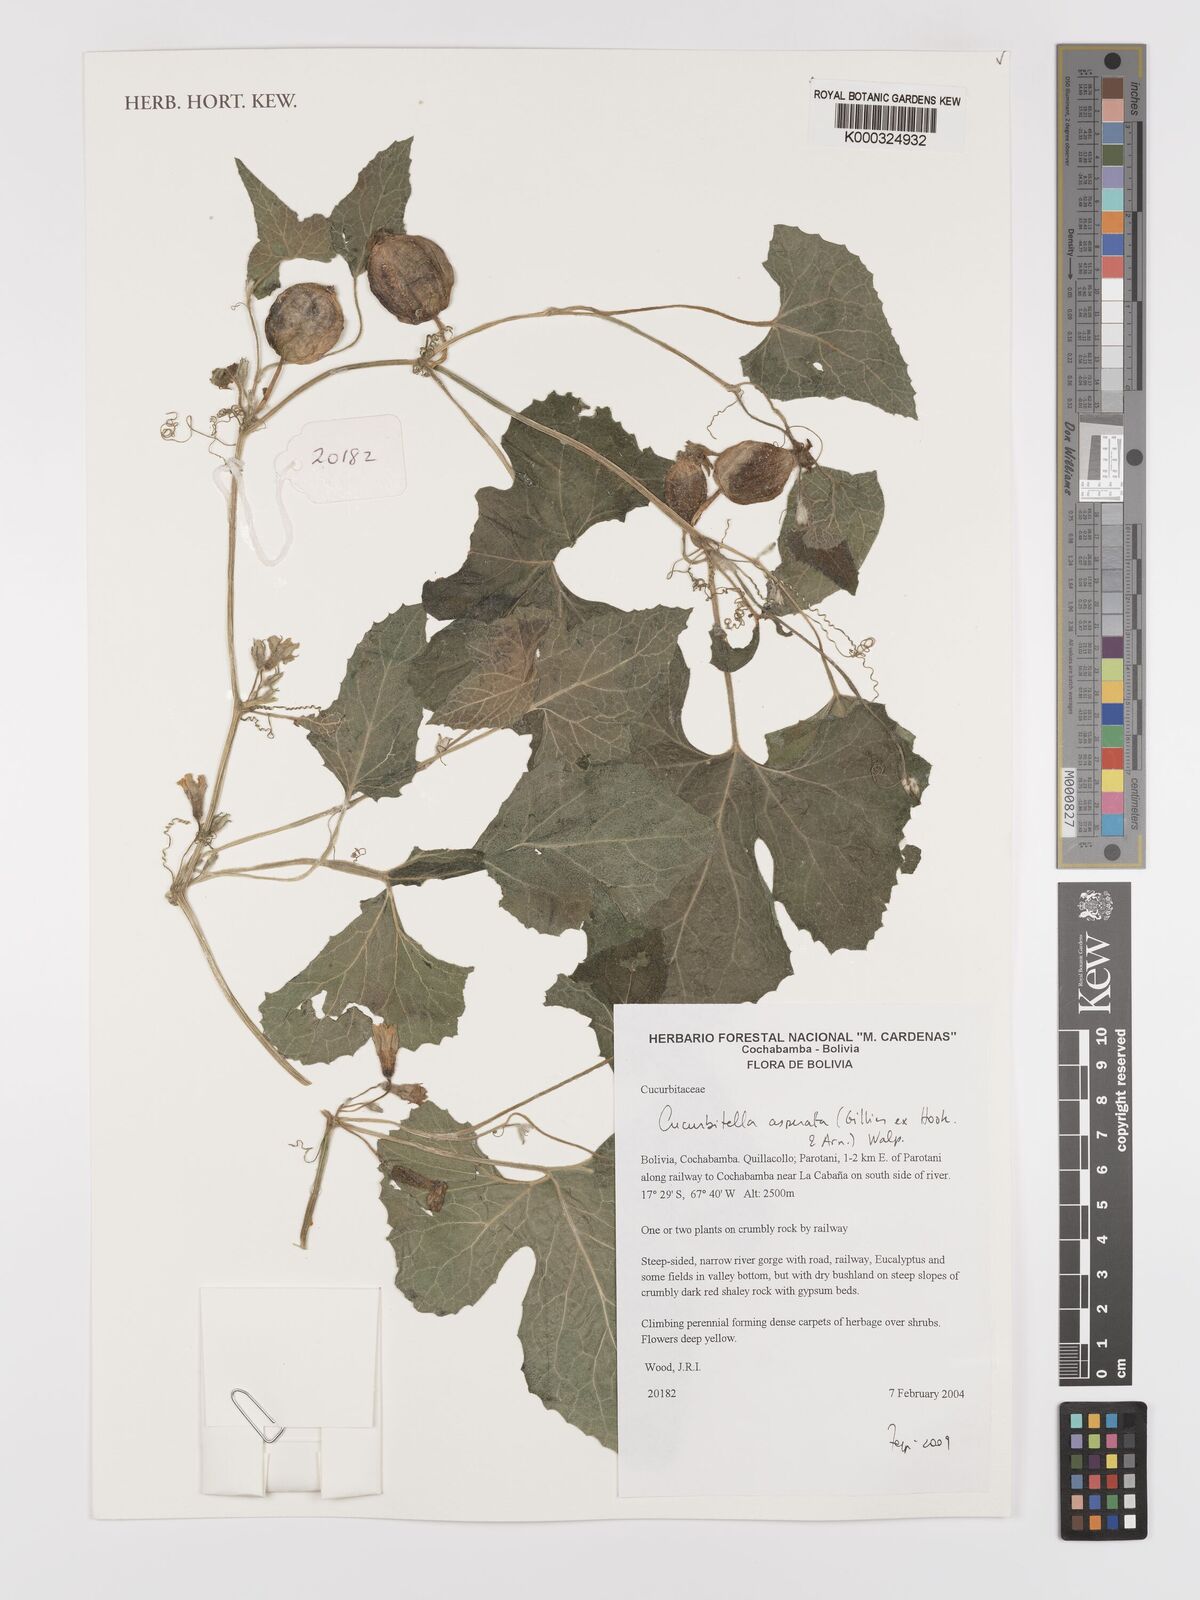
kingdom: Plantae
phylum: Tracheophyta
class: Magnoliopsida
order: Cucurbitales
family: Cucurbitaceae
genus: Cucurbitella
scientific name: Cucurbitella asperata
